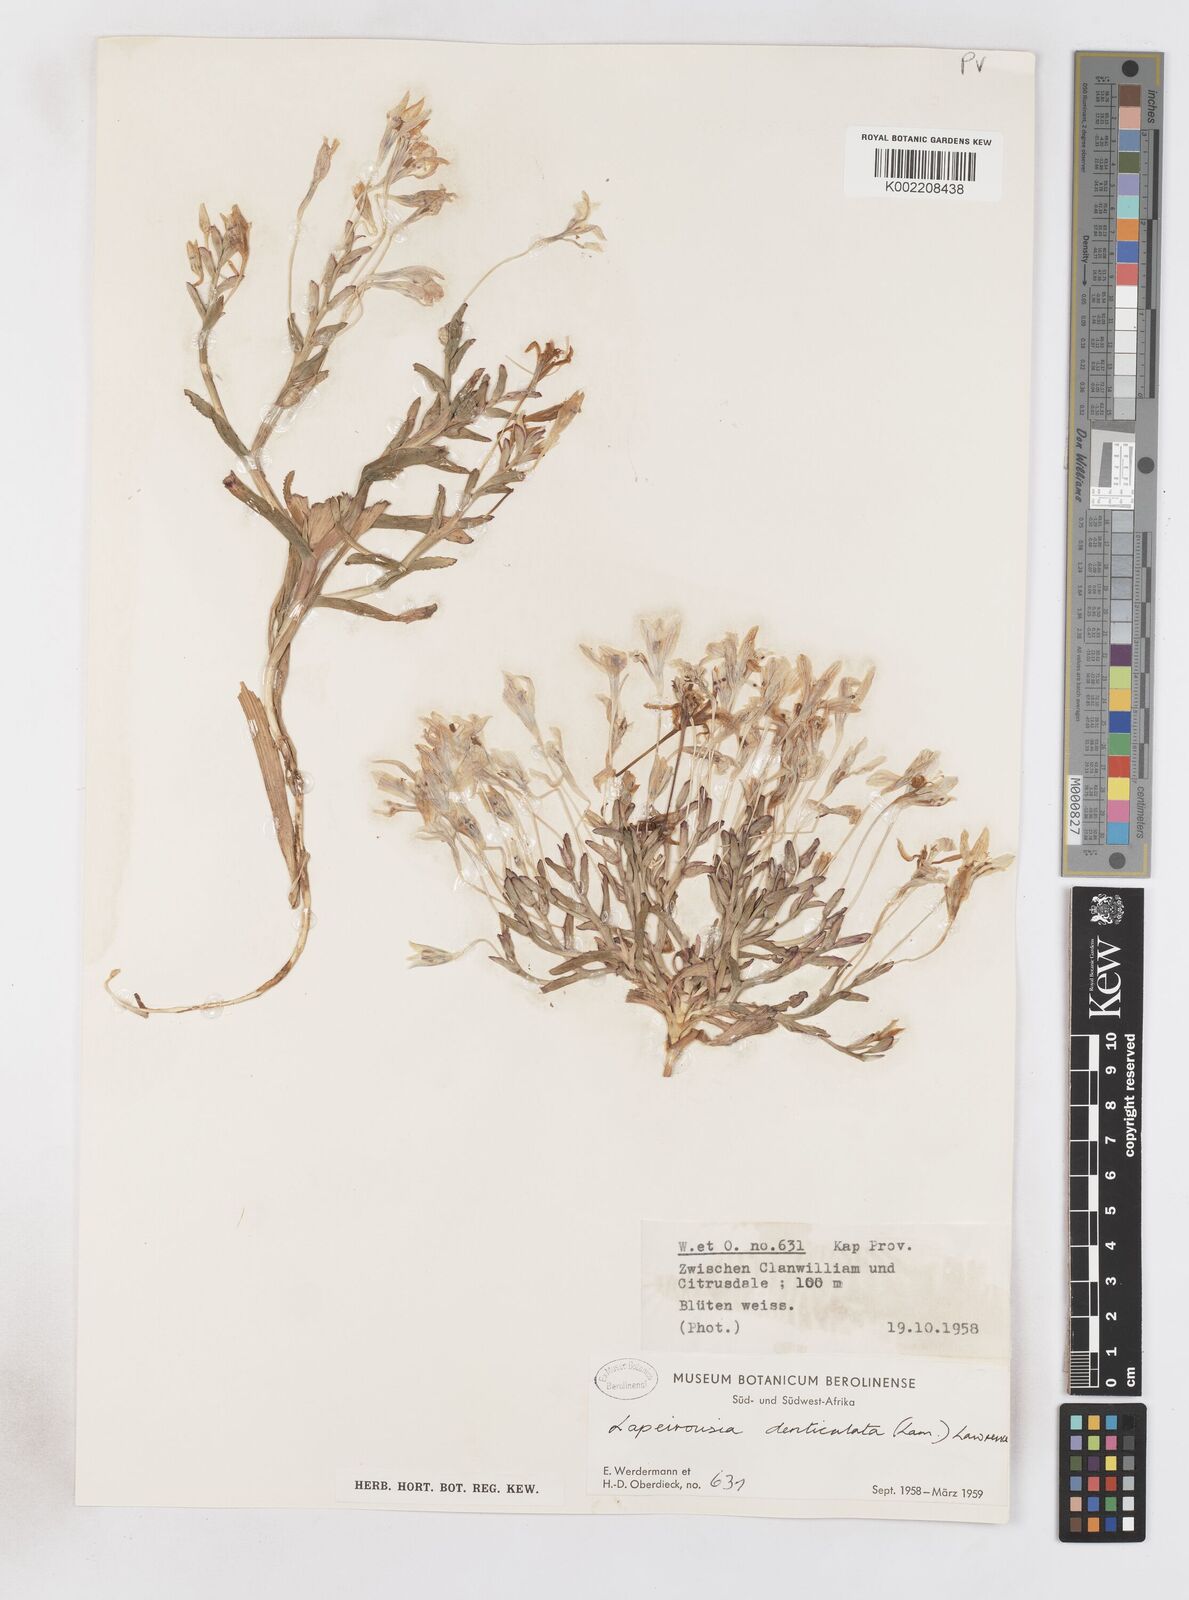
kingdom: Plantae
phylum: Tracheophyta
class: Liliopsida
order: Asparagales
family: Iridaceae
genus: Lapeirousia
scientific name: Lapeirousia fabricii
